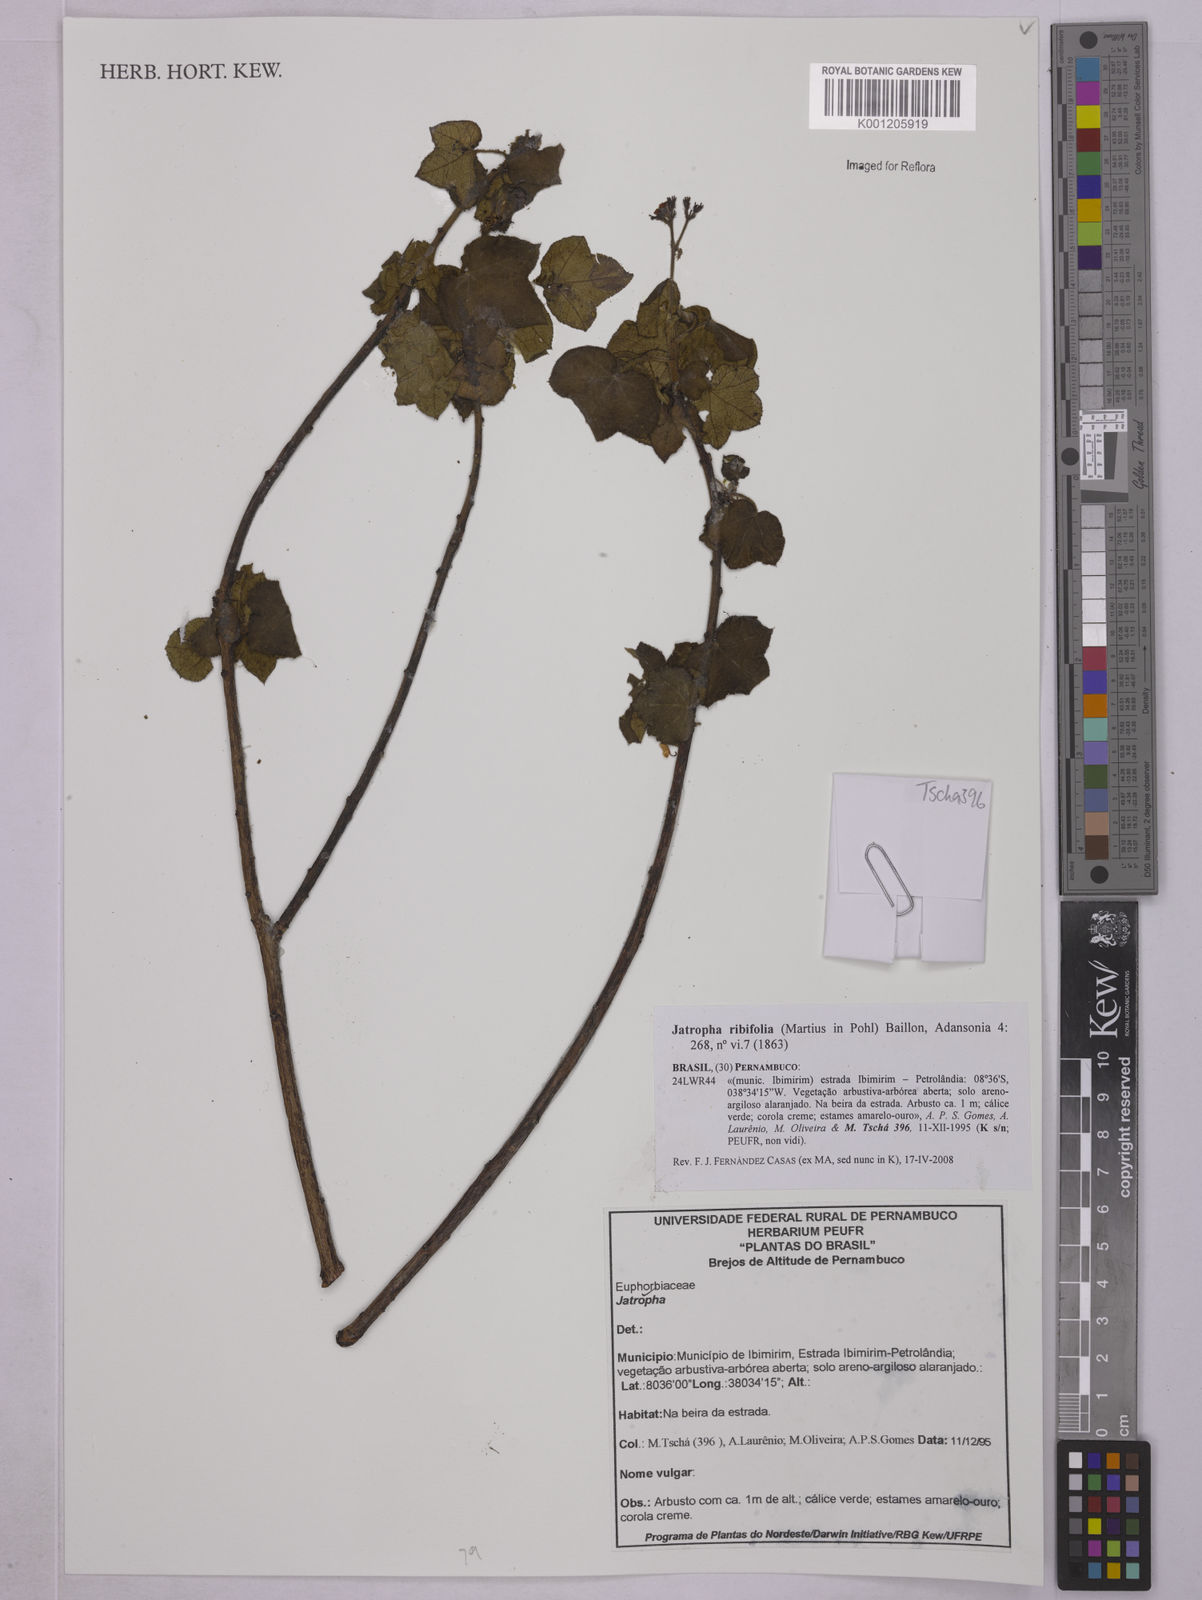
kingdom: Plantae
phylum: Tracheophyta
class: Magnoliopsida
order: Malpighiales
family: Euphorbiaceae
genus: Jatropha
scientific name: Jatropha ribifolia
